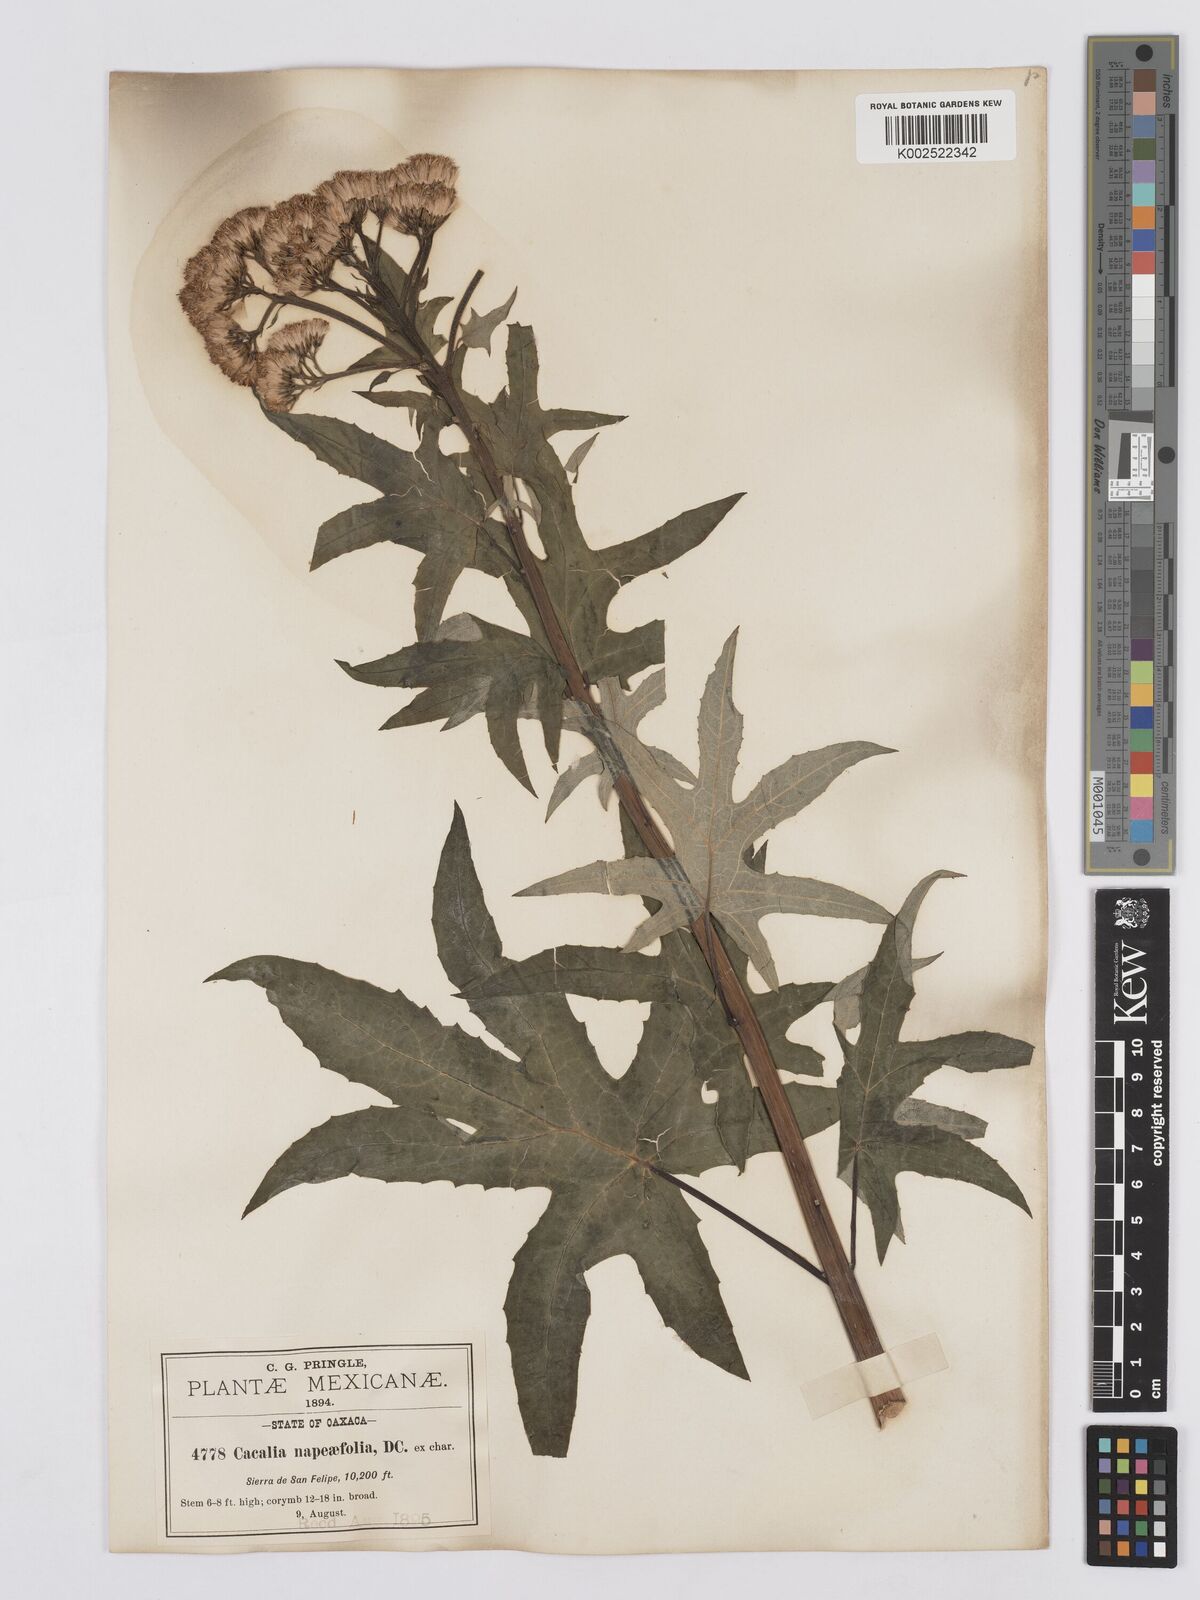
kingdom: Plantae
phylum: Tracheophyta
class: Magnoliopsida
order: Asterales
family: Asteraceae
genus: Digitacalia
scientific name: Digitacalia napeifolia
